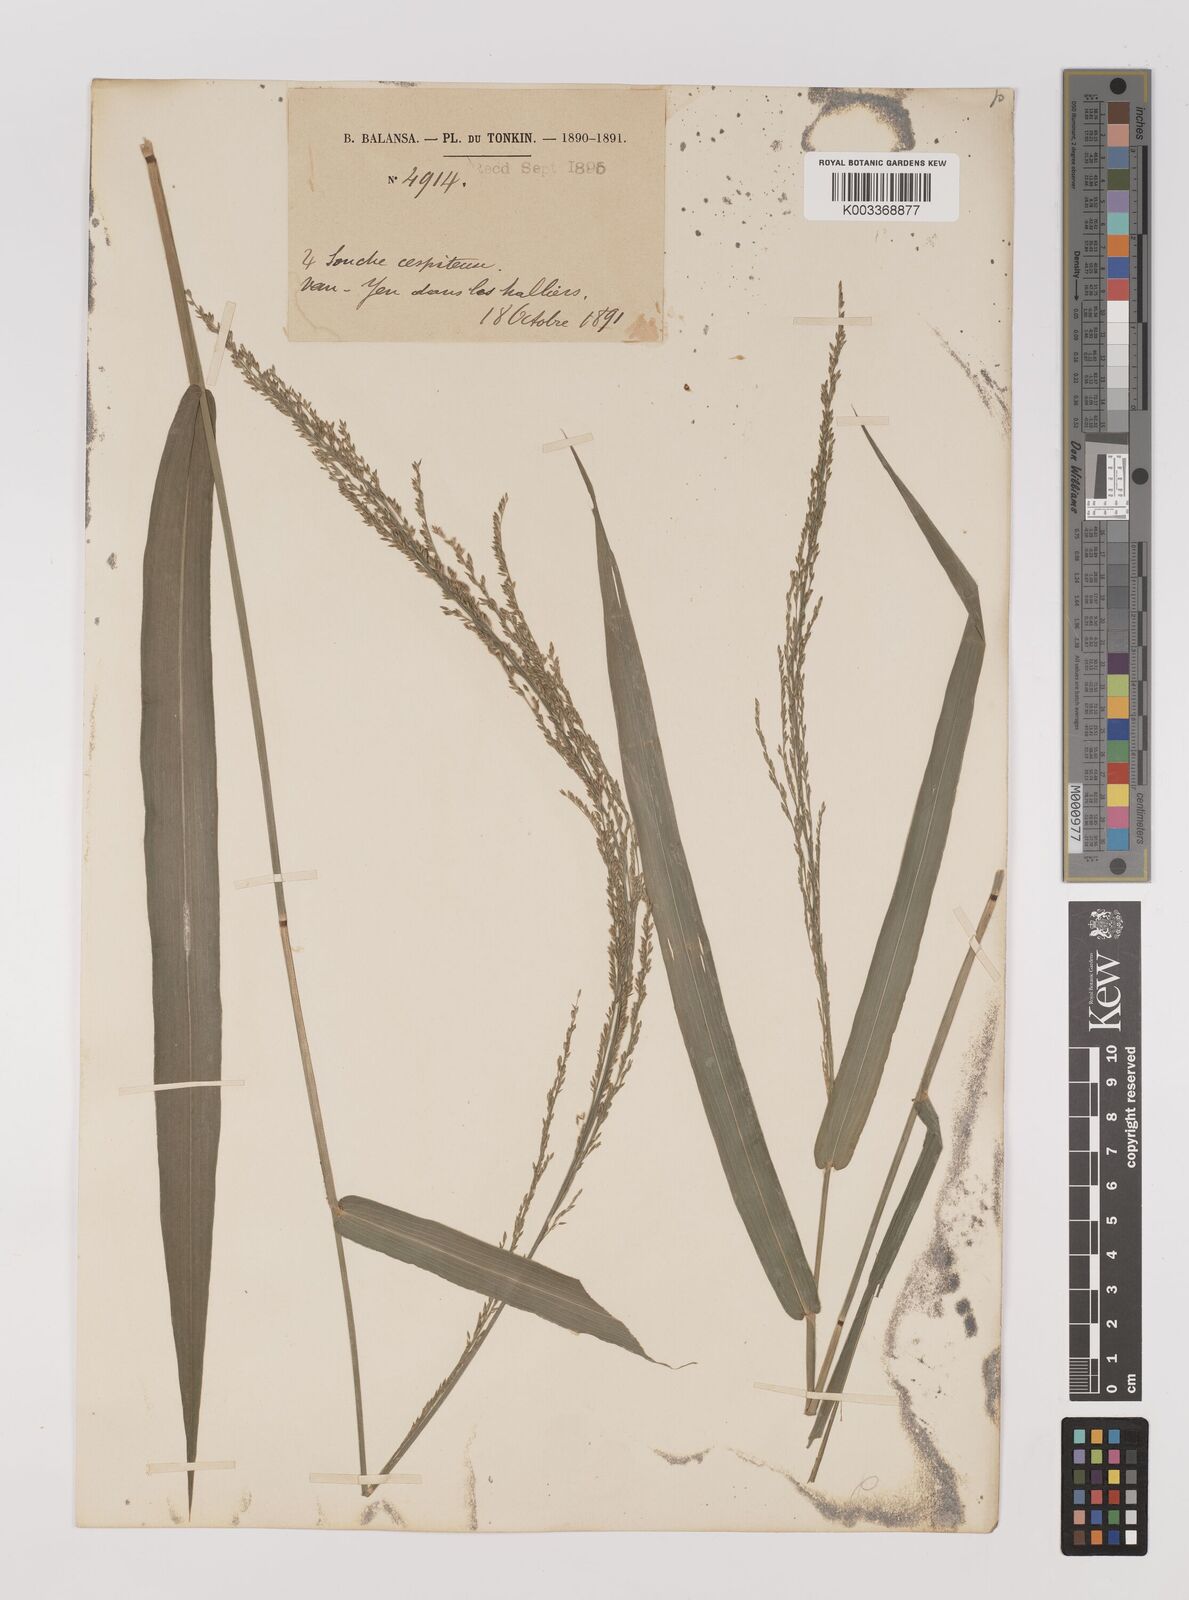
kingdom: Plantae
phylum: Tracheophyta
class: Liliopsida
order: Poales
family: Poaceae
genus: Hymenachne
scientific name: Hymenachne amplexicaulis
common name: Olive hymenachne
